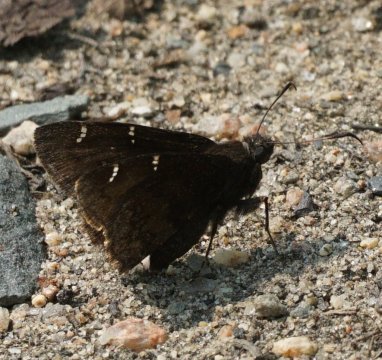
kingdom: Animalia
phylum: Arthropoda
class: Insecta
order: Lepidoptera
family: Hesperiidae
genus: Autochton
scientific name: Autochton
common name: Northern Cloudywing
